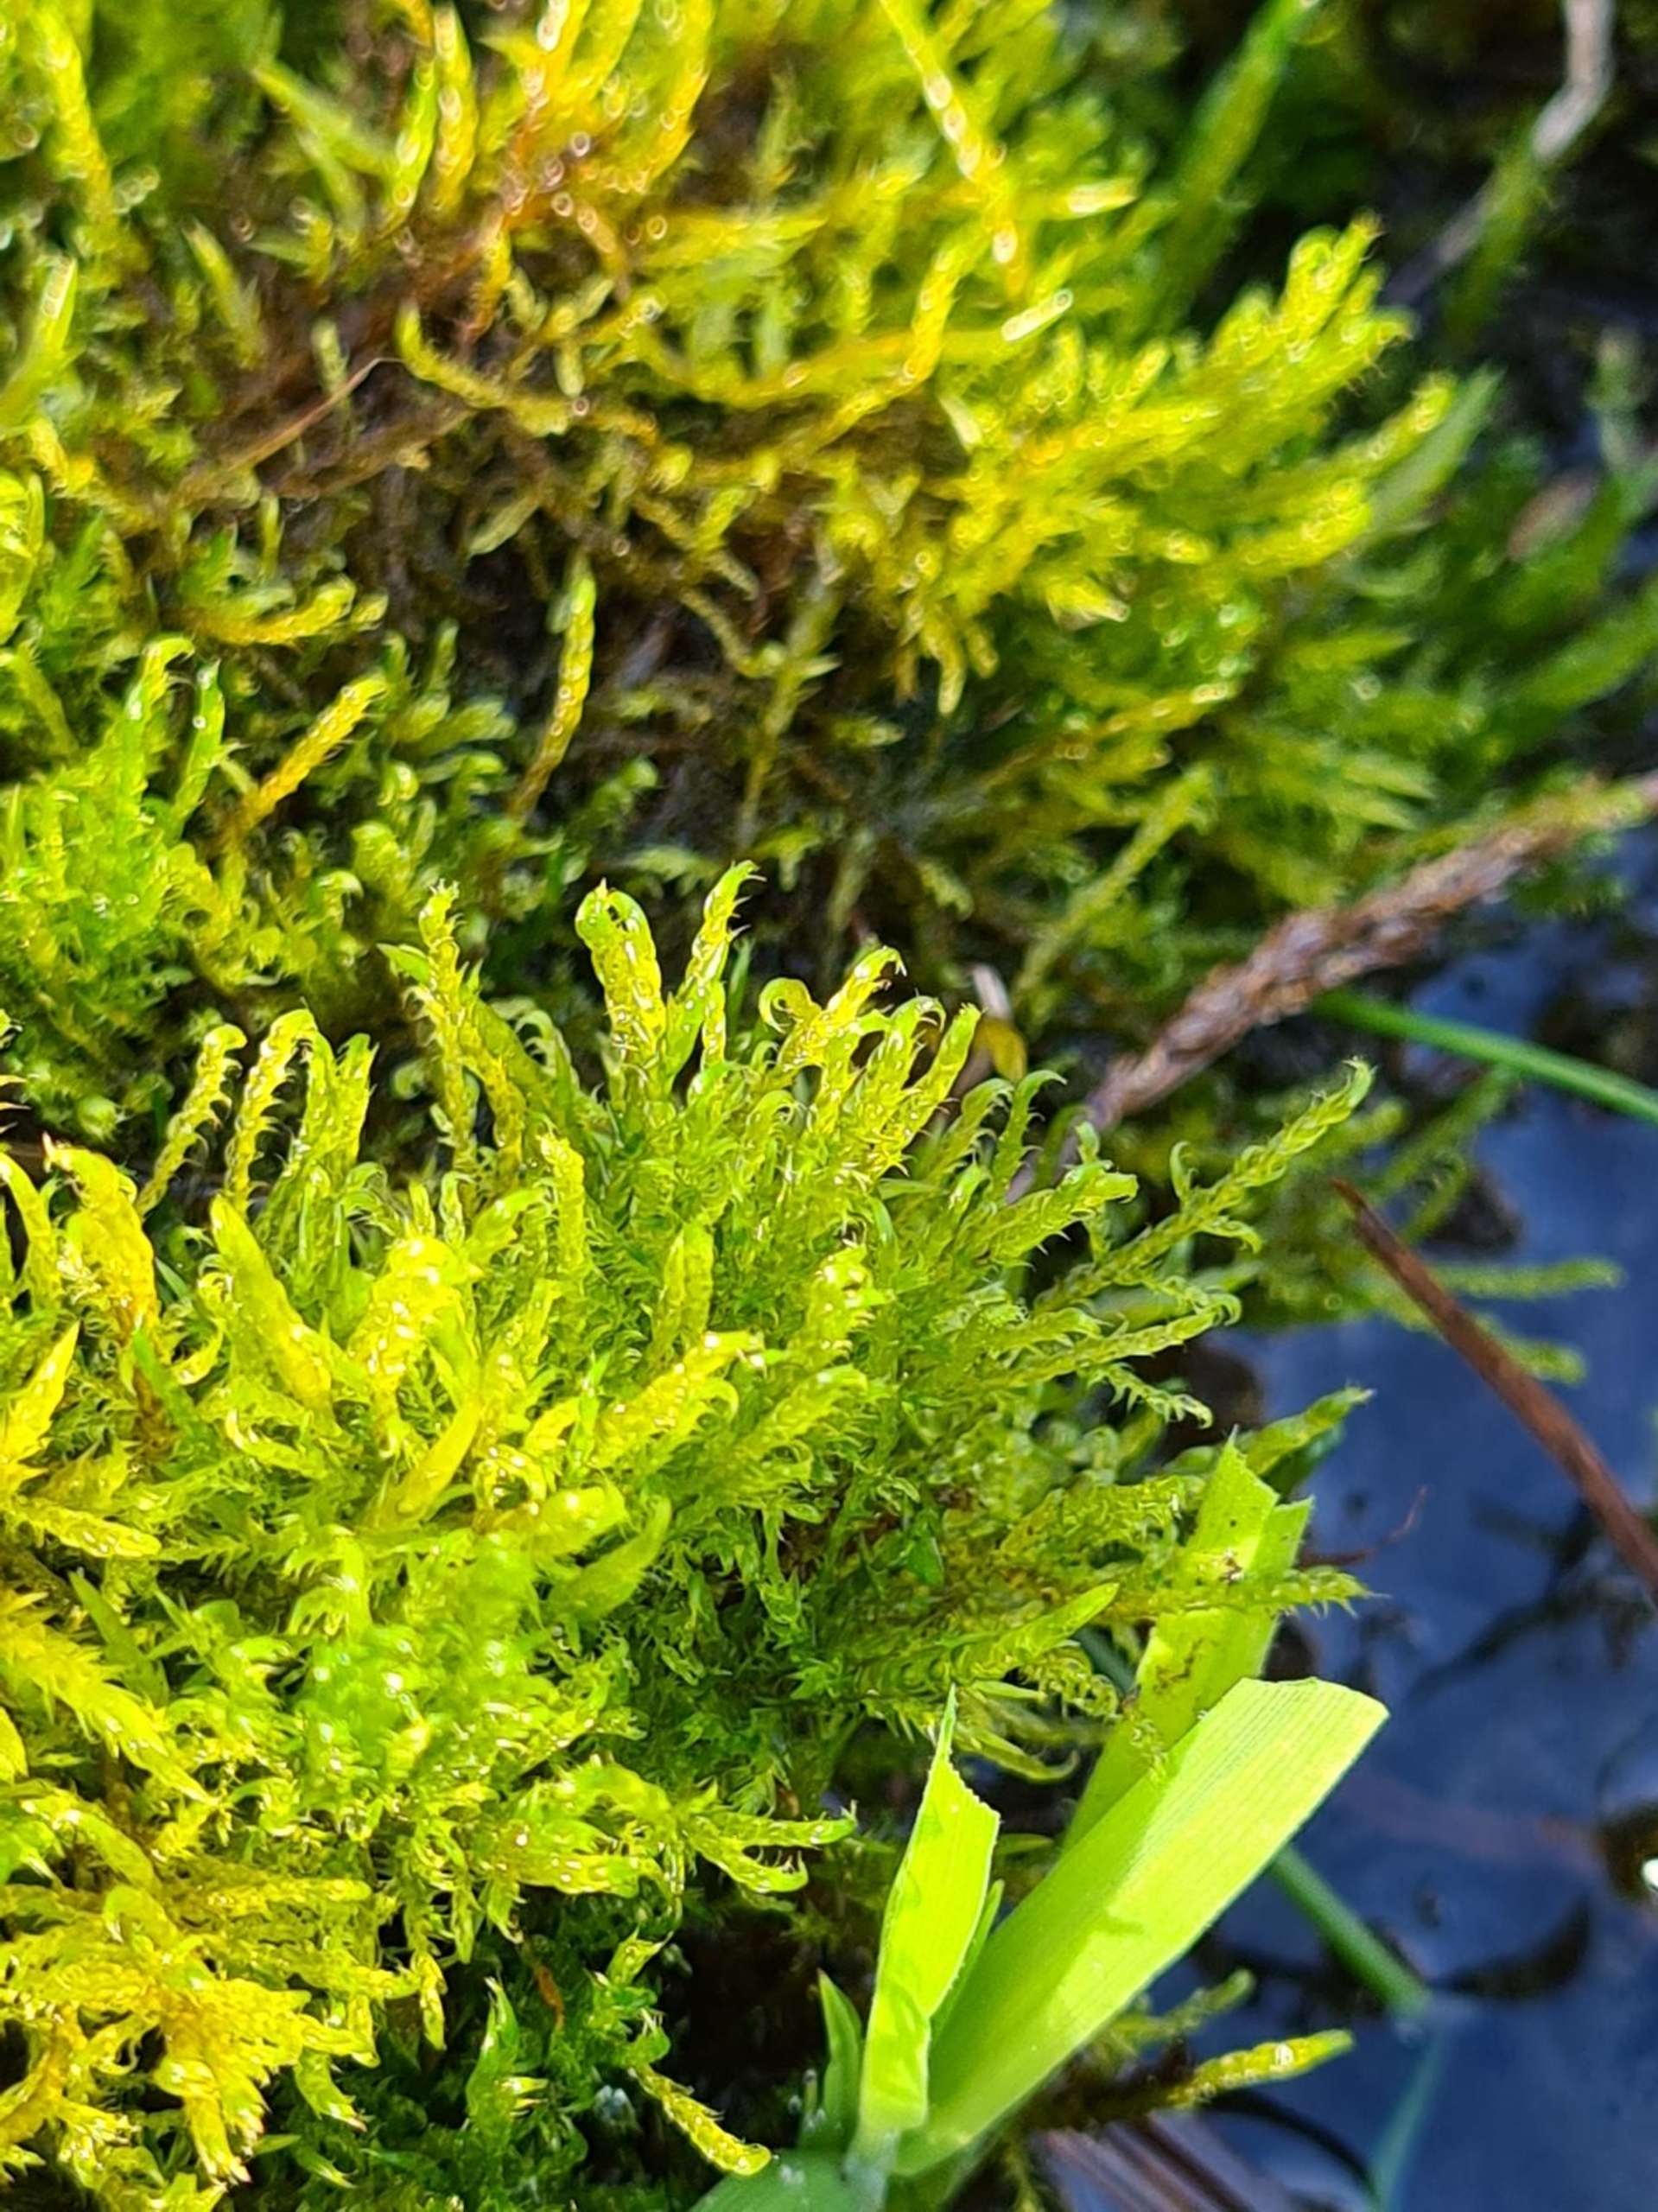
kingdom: Plantae
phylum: Bryophyta
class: Bryopsida
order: Hypnales
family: Amblystegiaceae
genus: Drepanocladus
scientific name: Drepanocladus aduncus
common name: Kær-seglmos
